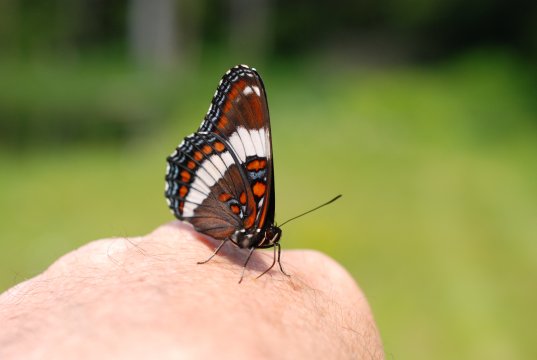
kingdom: Animalia
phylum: Arthropoda
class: Insecta
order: Lepidoptera
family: Nymphalidae
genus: Limenitis
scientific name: Limenitis arthemis
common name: Red-spotted Admiral
